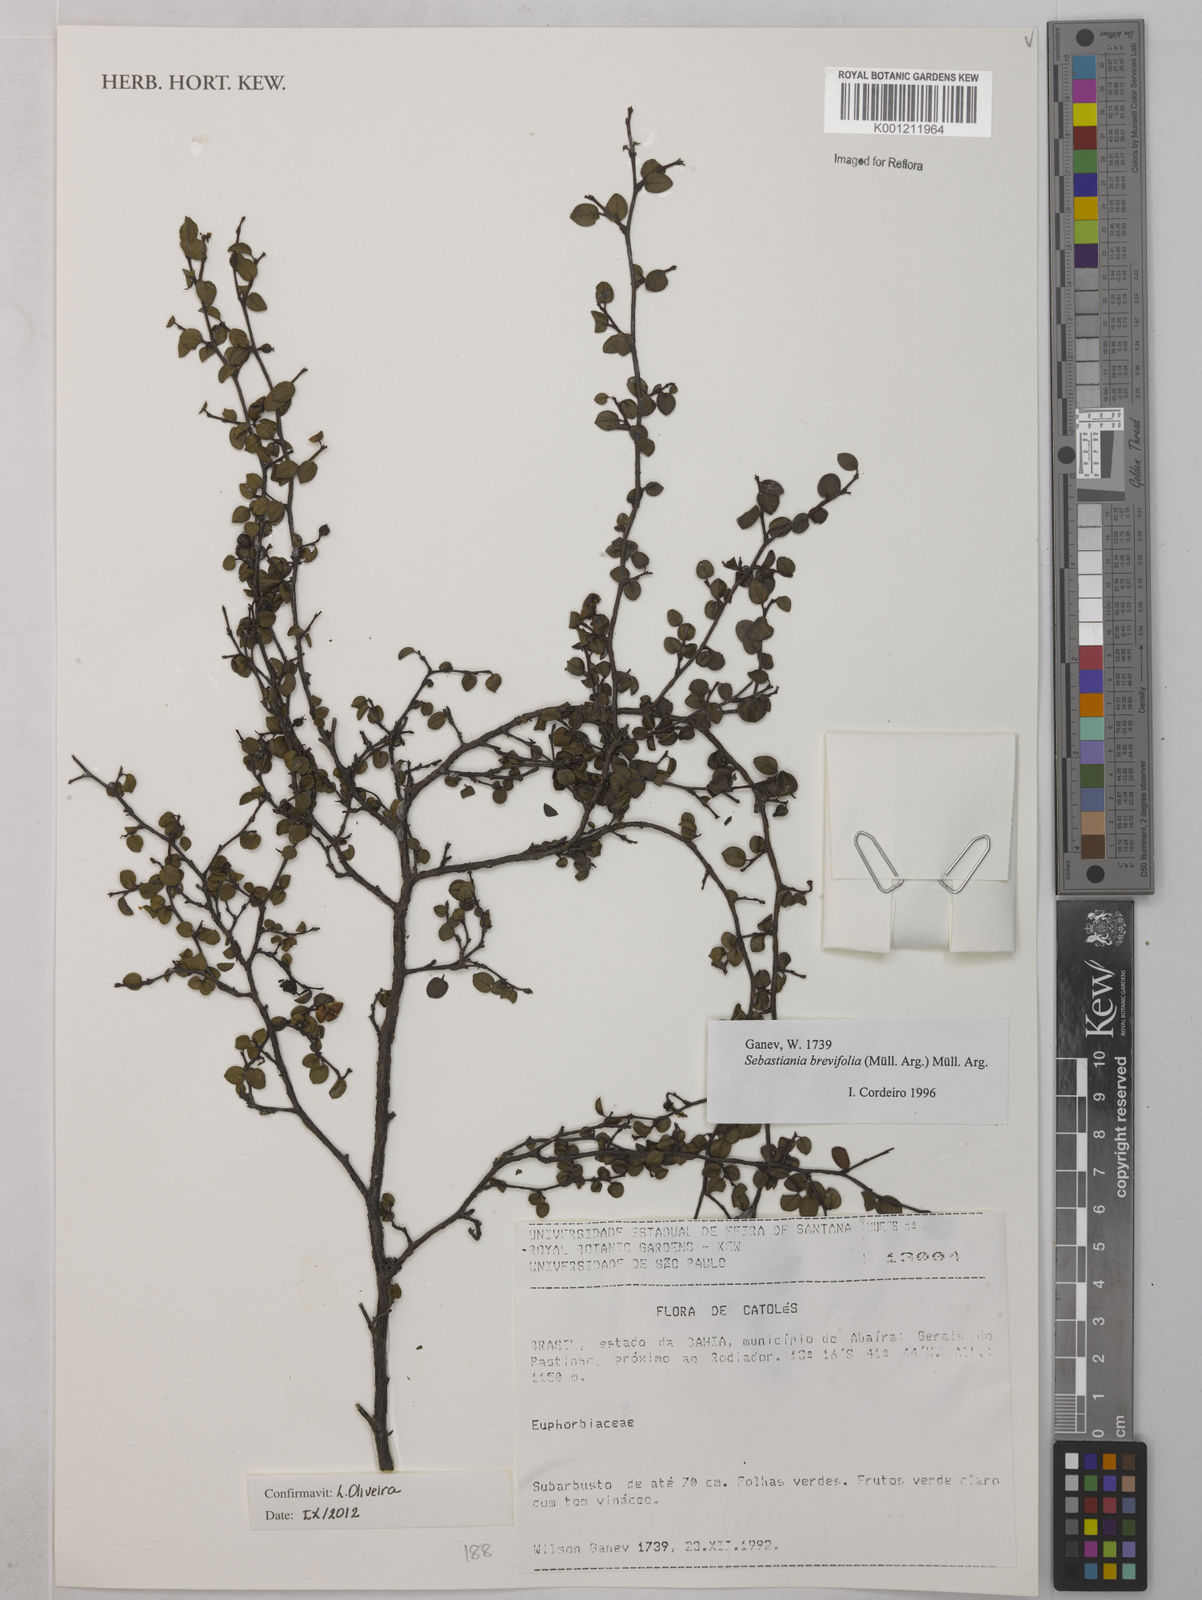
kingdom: Plantae
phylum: Tracheophyta
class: Magnoliopsida
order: Malpighiales
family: Euphorbiaceae
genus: Sebastiania
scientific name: Sebastiania
